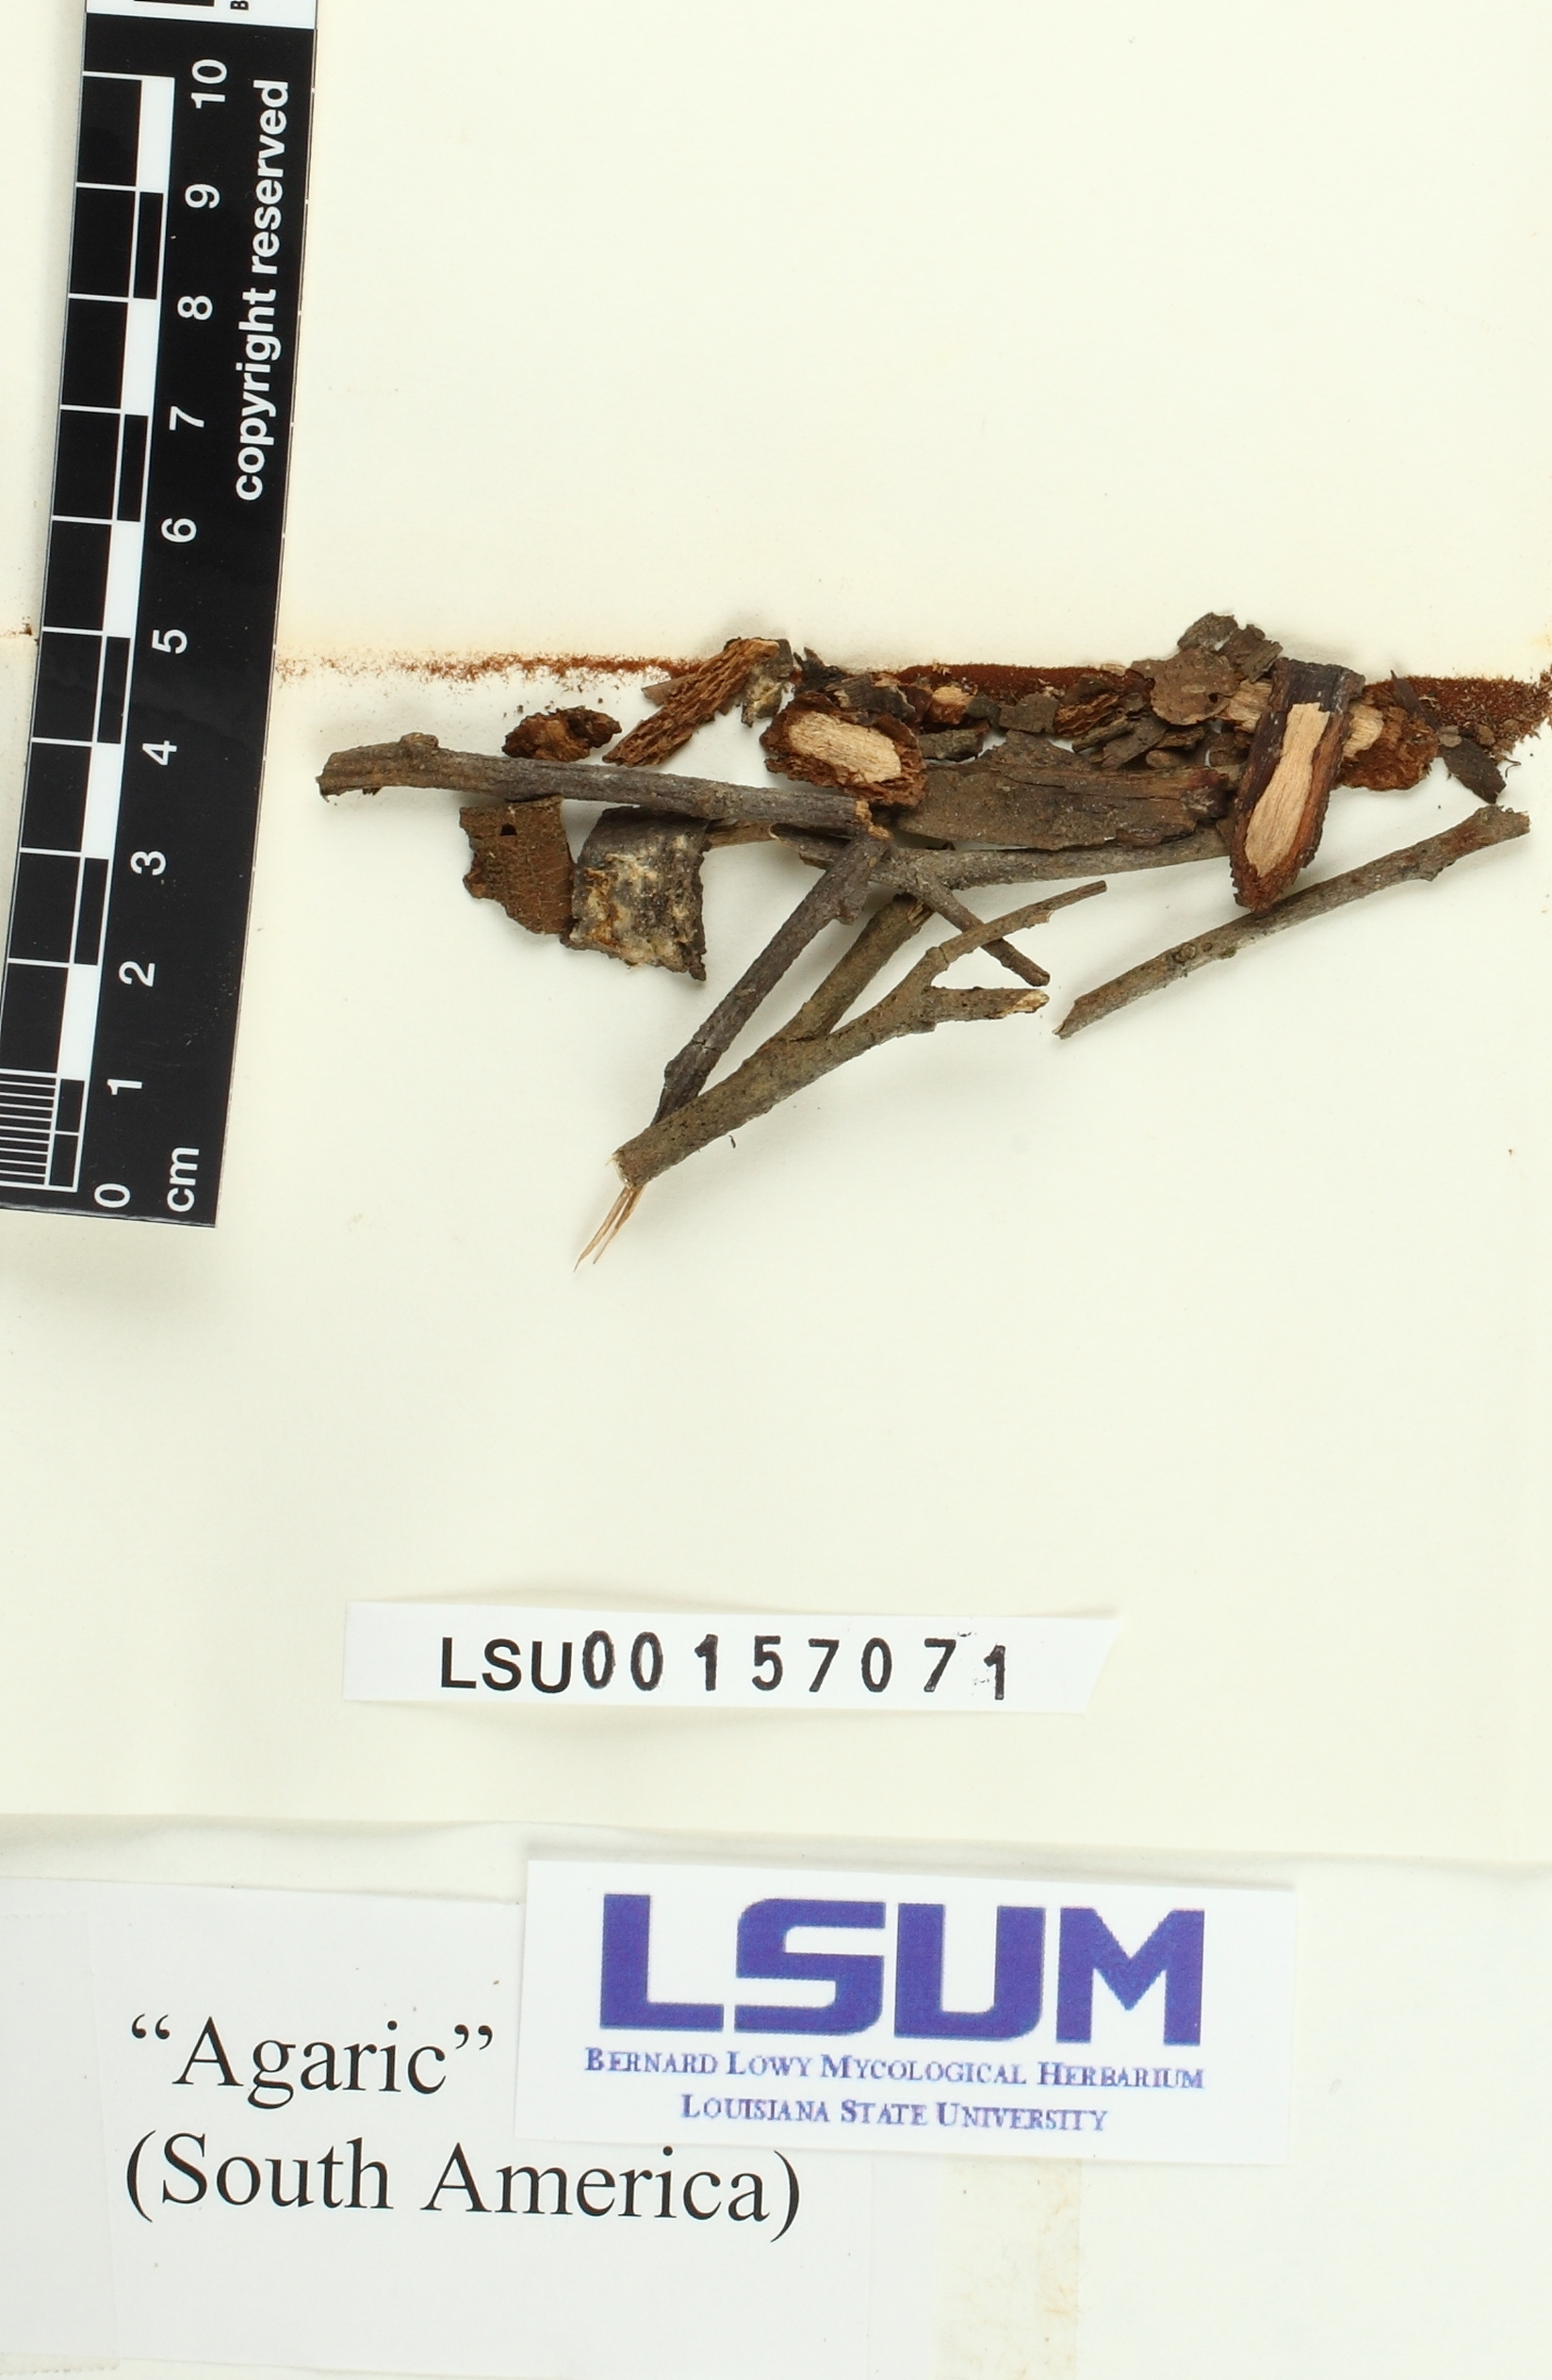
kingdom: Fungi
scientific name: Fungi
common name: Fungi
